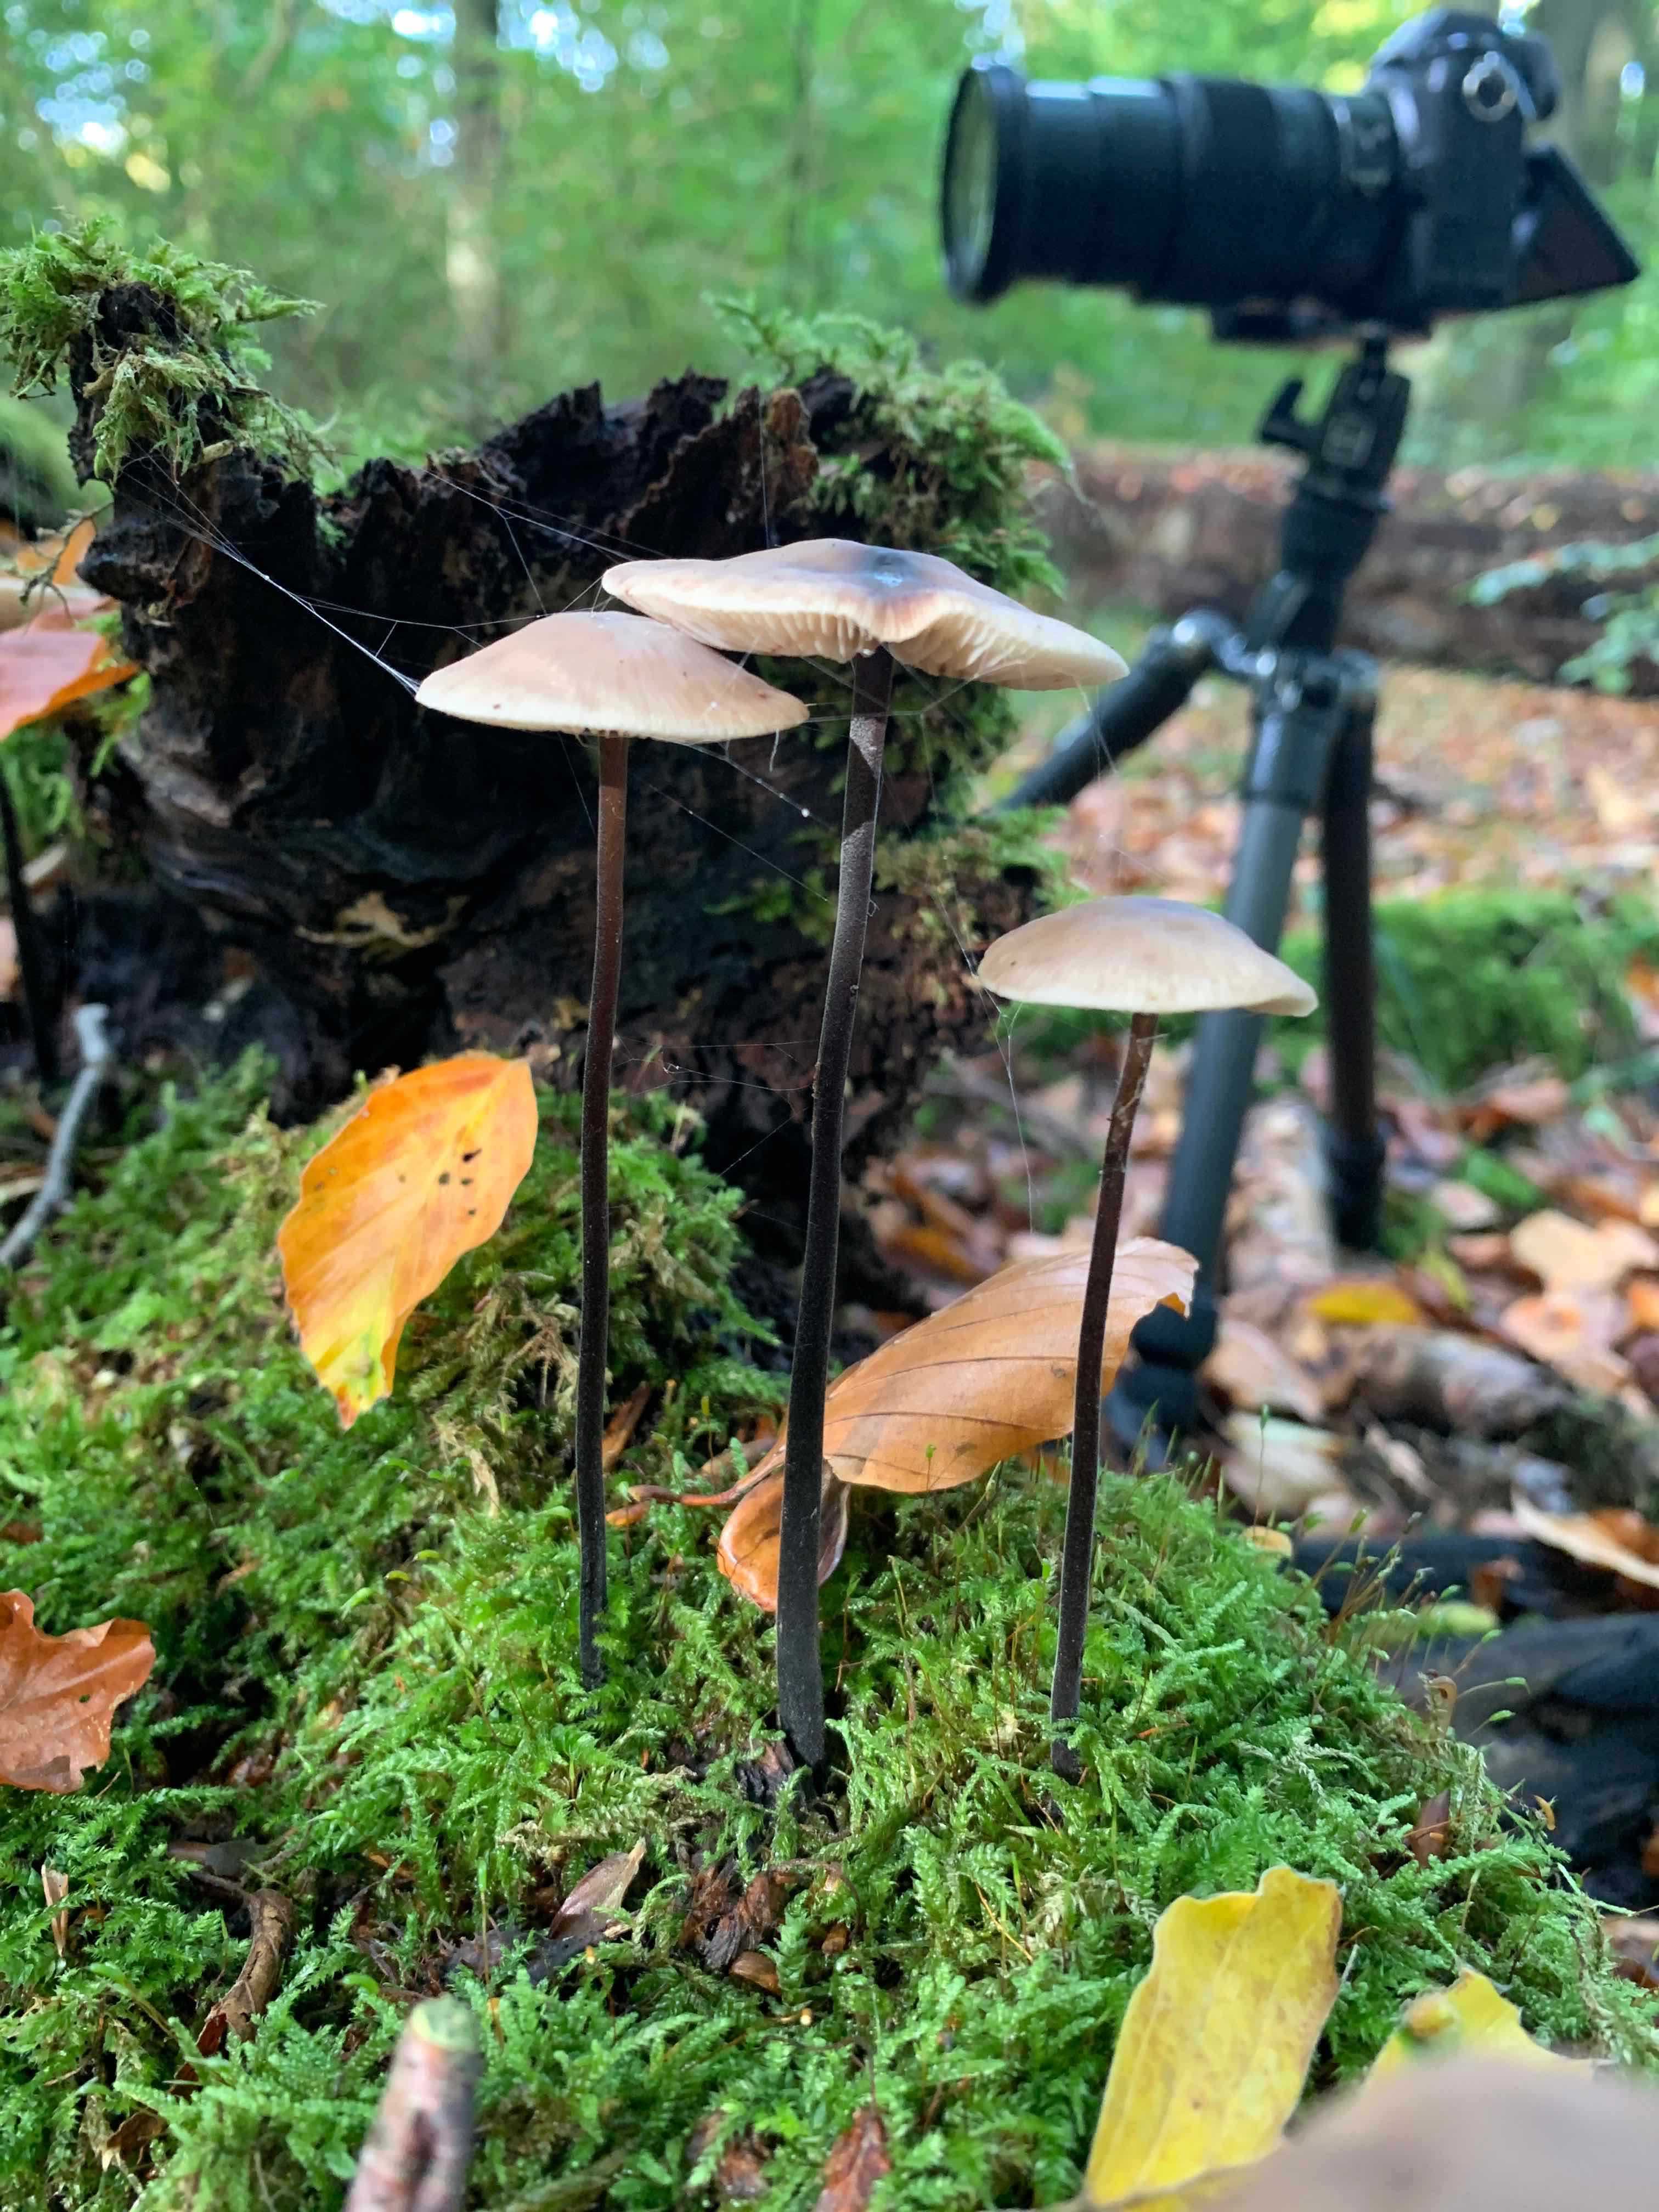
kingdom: Fungi
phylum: Basidiomycota
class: Agaricomycetes
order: Agaricales
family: Omphalotaceae
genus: Mycetinis
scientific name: Mycetinis alliaceus
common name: stor løghat
